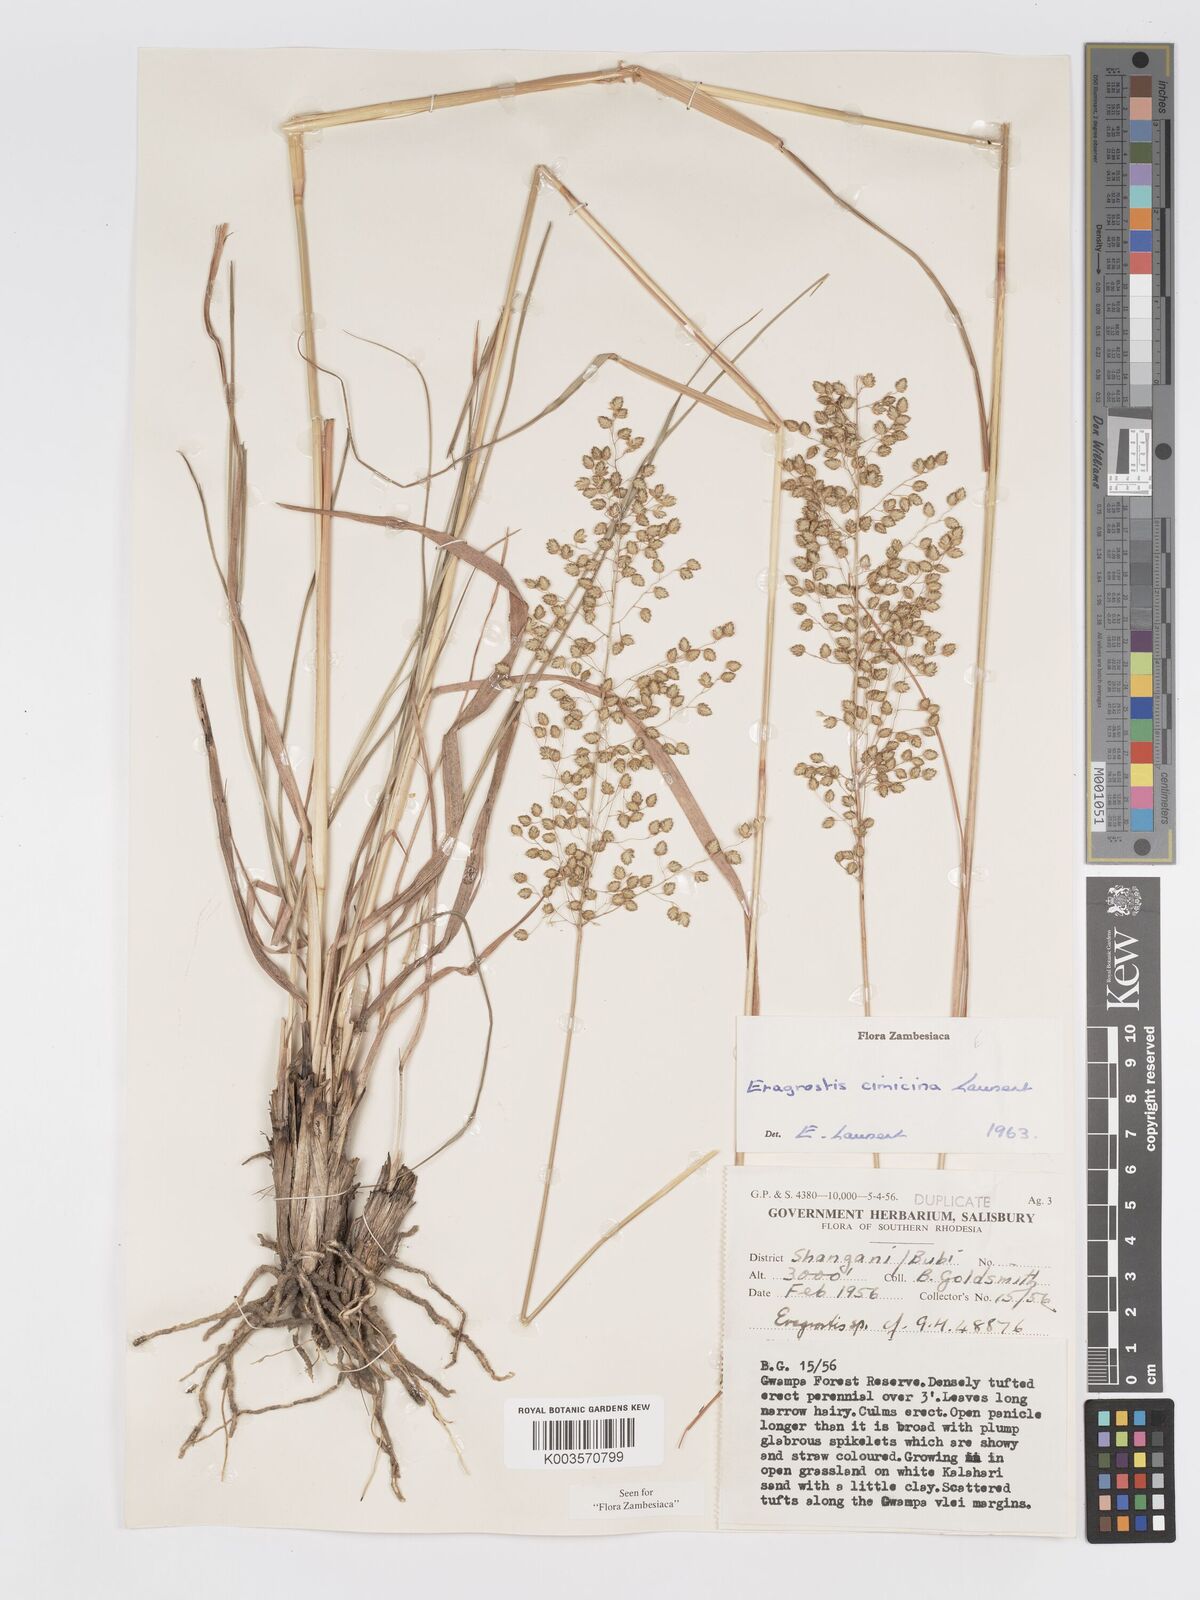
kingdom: Plantae
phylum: Tracheophyta
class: Liliopsida
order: Poales
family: Poaceae
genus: Eragrostis
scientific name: Eragrostis cimicina
